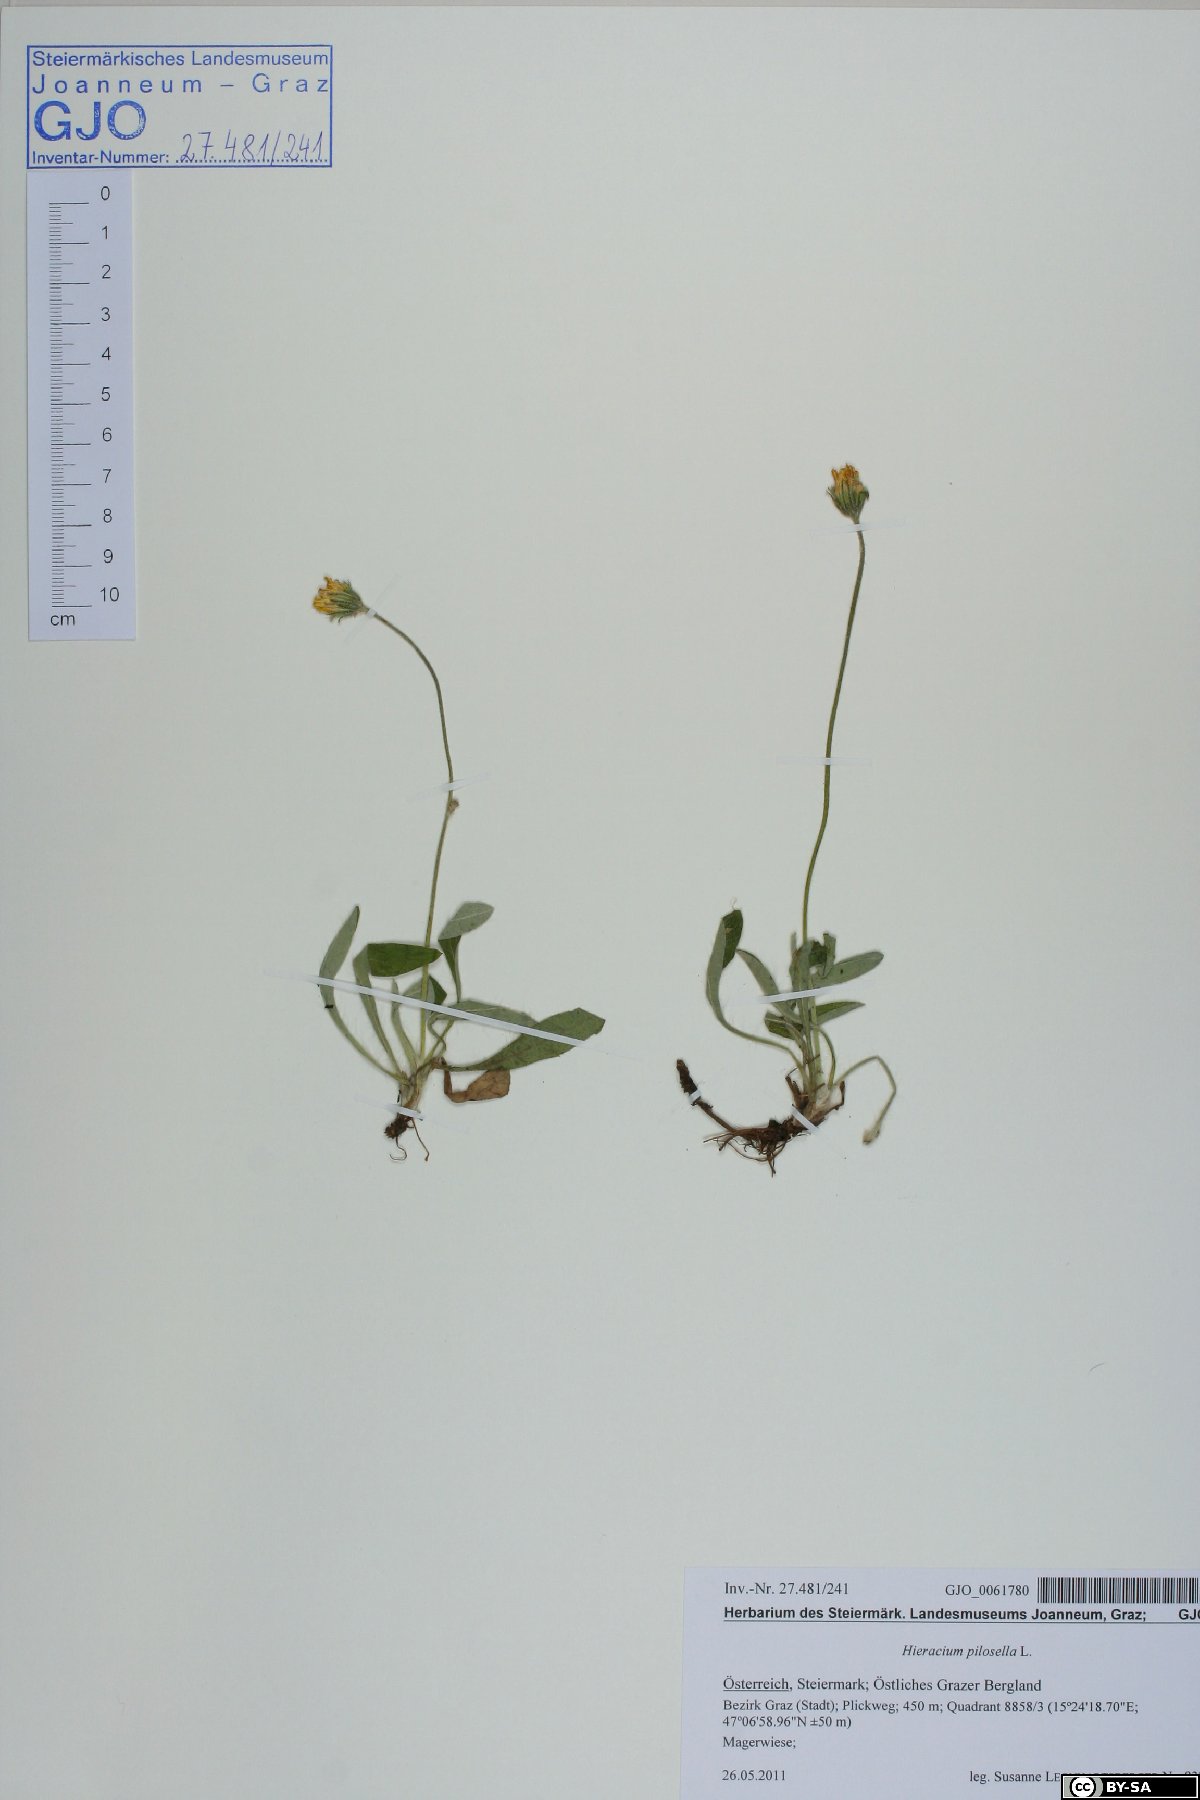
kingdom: Plantae
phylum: Tracheophyta
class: Magnoliopsida
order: Asterales
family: Asteraceae
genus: Pilosella
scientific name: Pilosella officinarum
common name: Mouse-ear hawkweed
